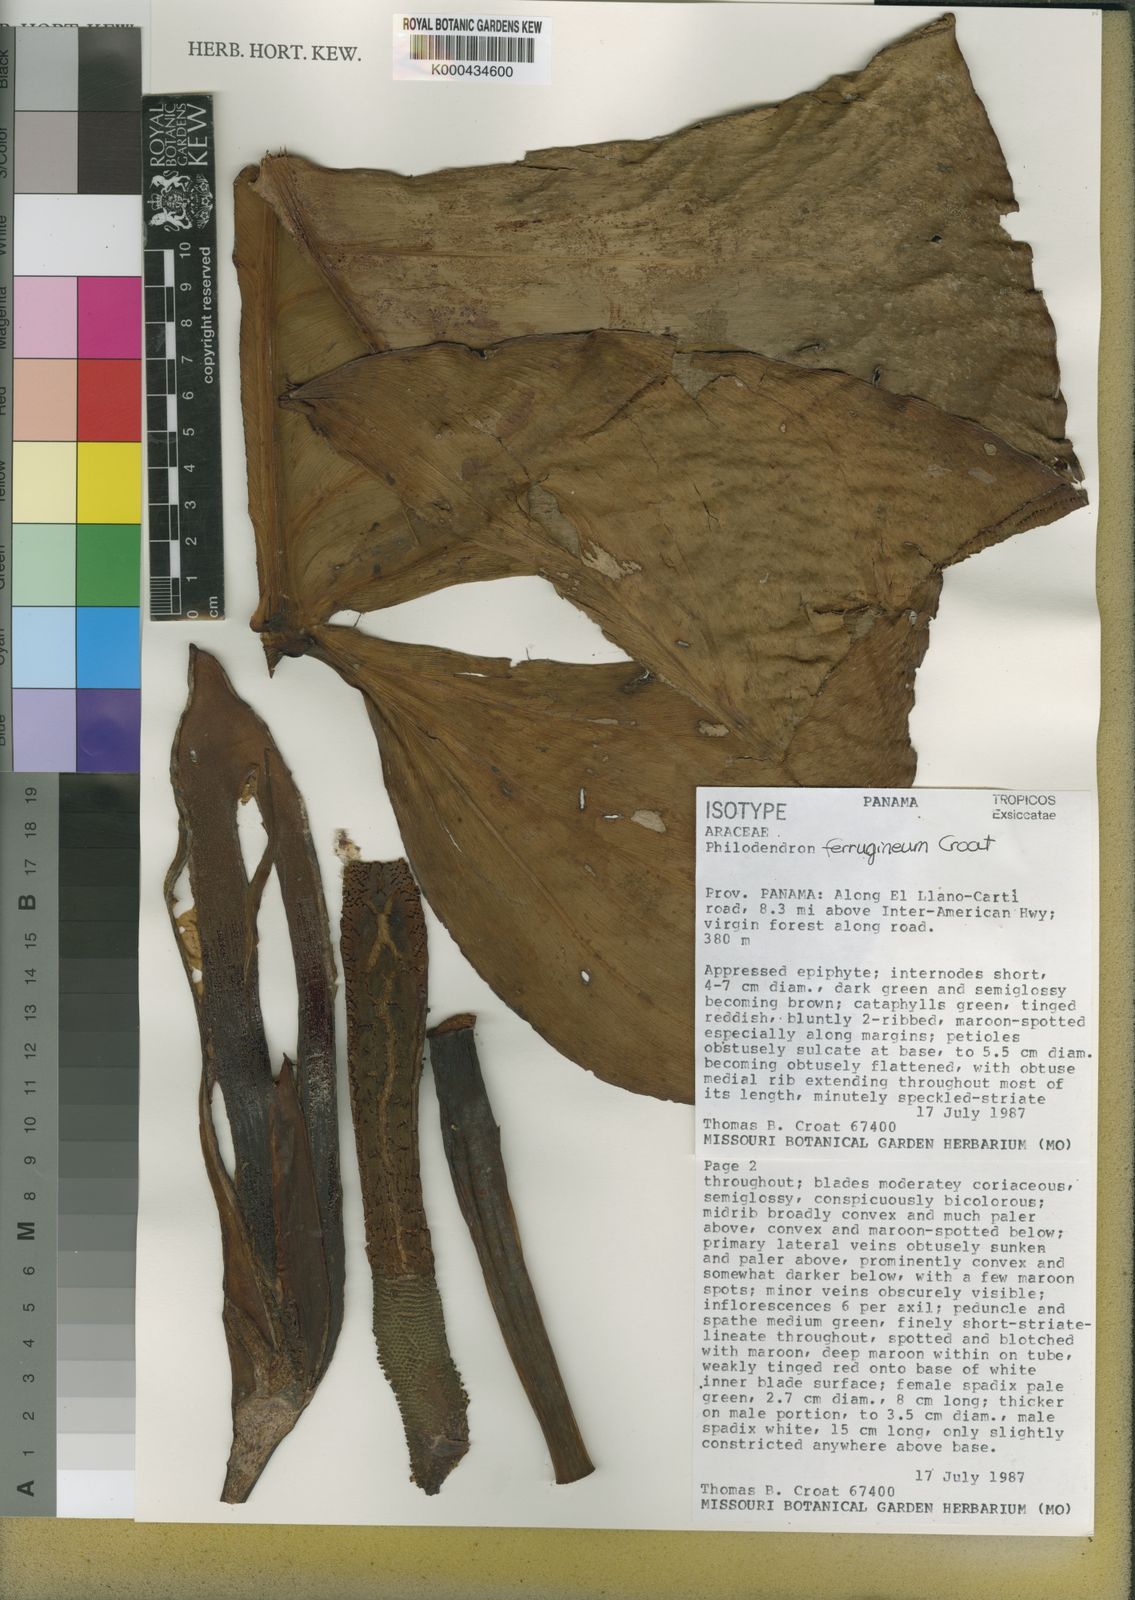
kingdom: Plantae
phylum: Tracheophyta
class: Liliopsida
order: Alismatales
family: Araceae
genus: Philodendron
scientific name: Philodendron ferrugineum
